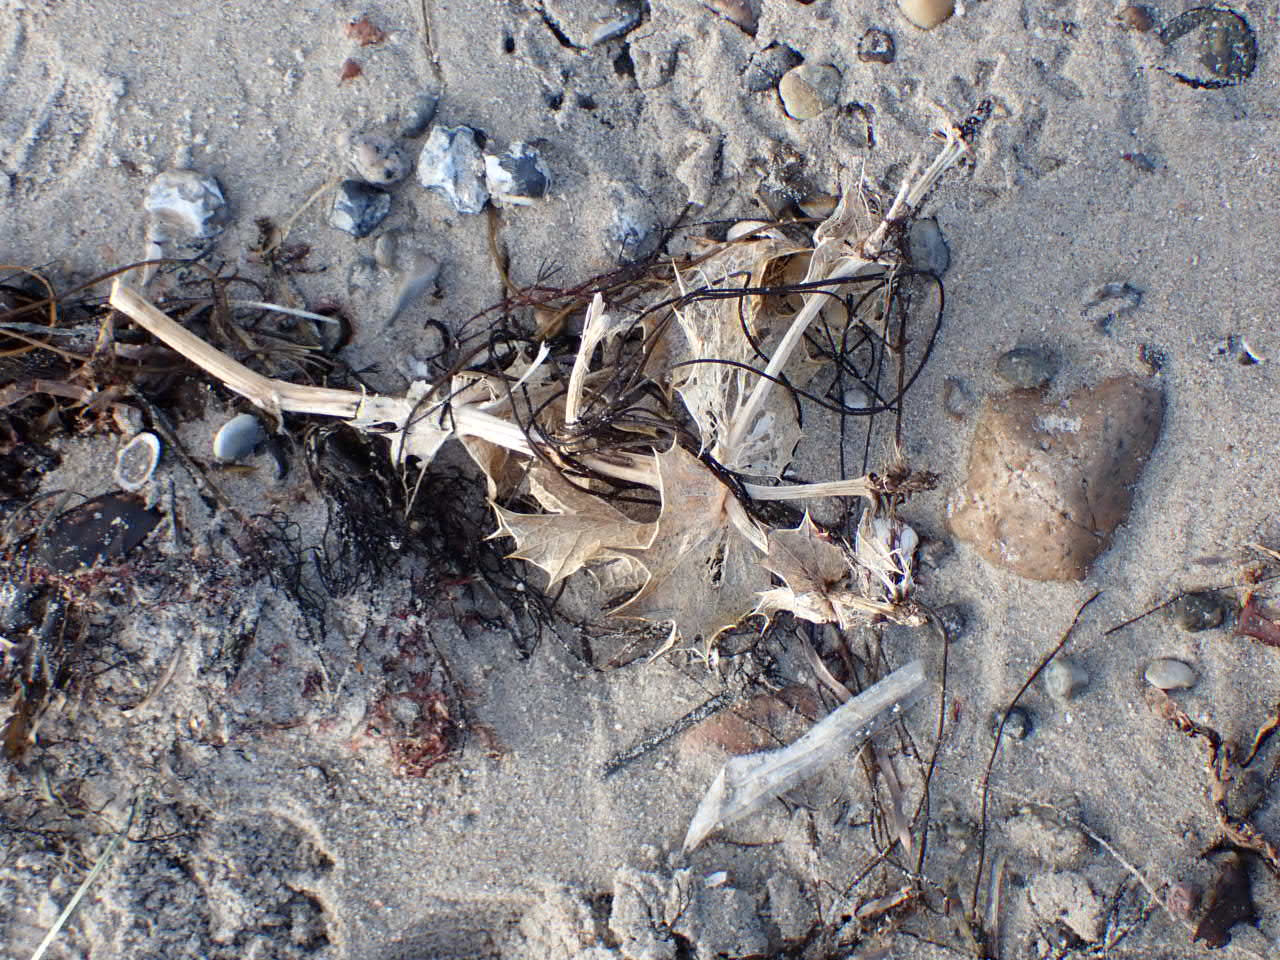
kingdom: Plantae
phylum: Tracheophyta
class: Magnoliopsida
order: Apiales
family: Apiaceae
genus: Eryngium
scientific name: Eryngium maritimum
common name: Strand-mandstro
